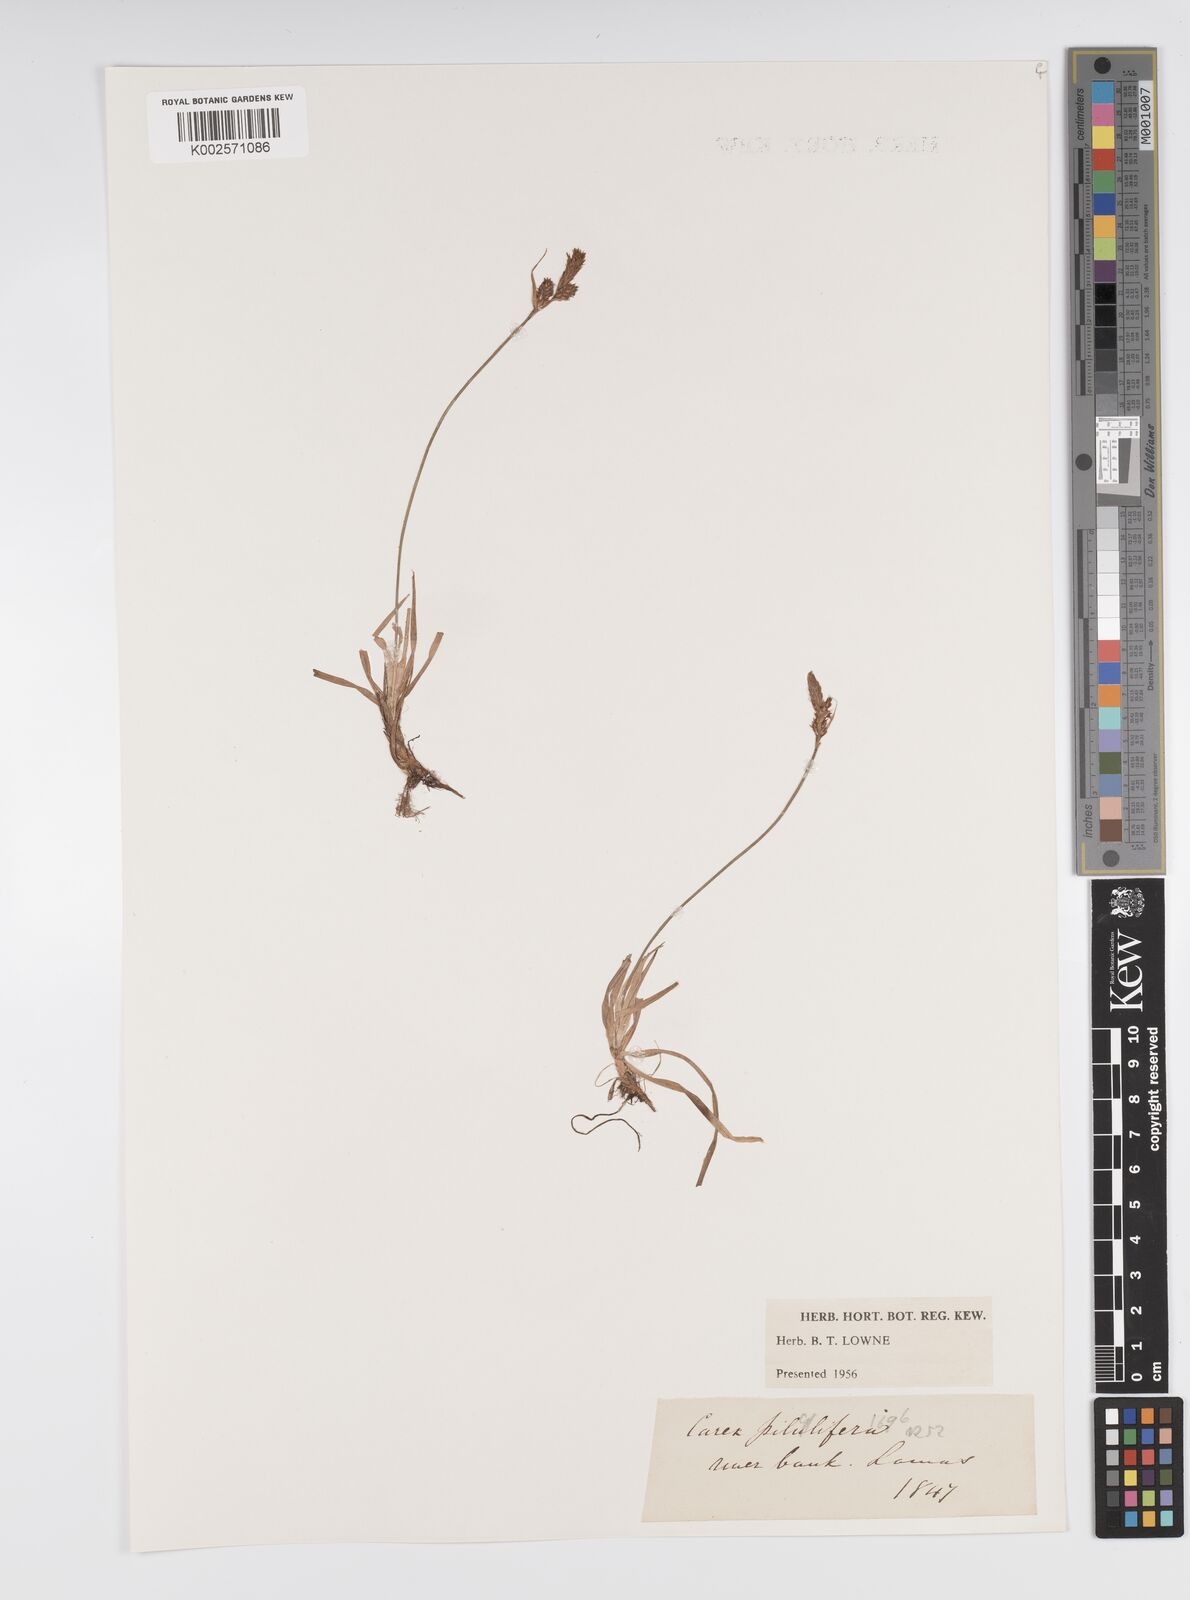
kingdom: Plantae
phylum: Tracheophyta
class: Liliopsida
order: Poales
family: Cyperaceae
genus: Carex
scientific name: Carex pilulifera
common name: Pill sedge
